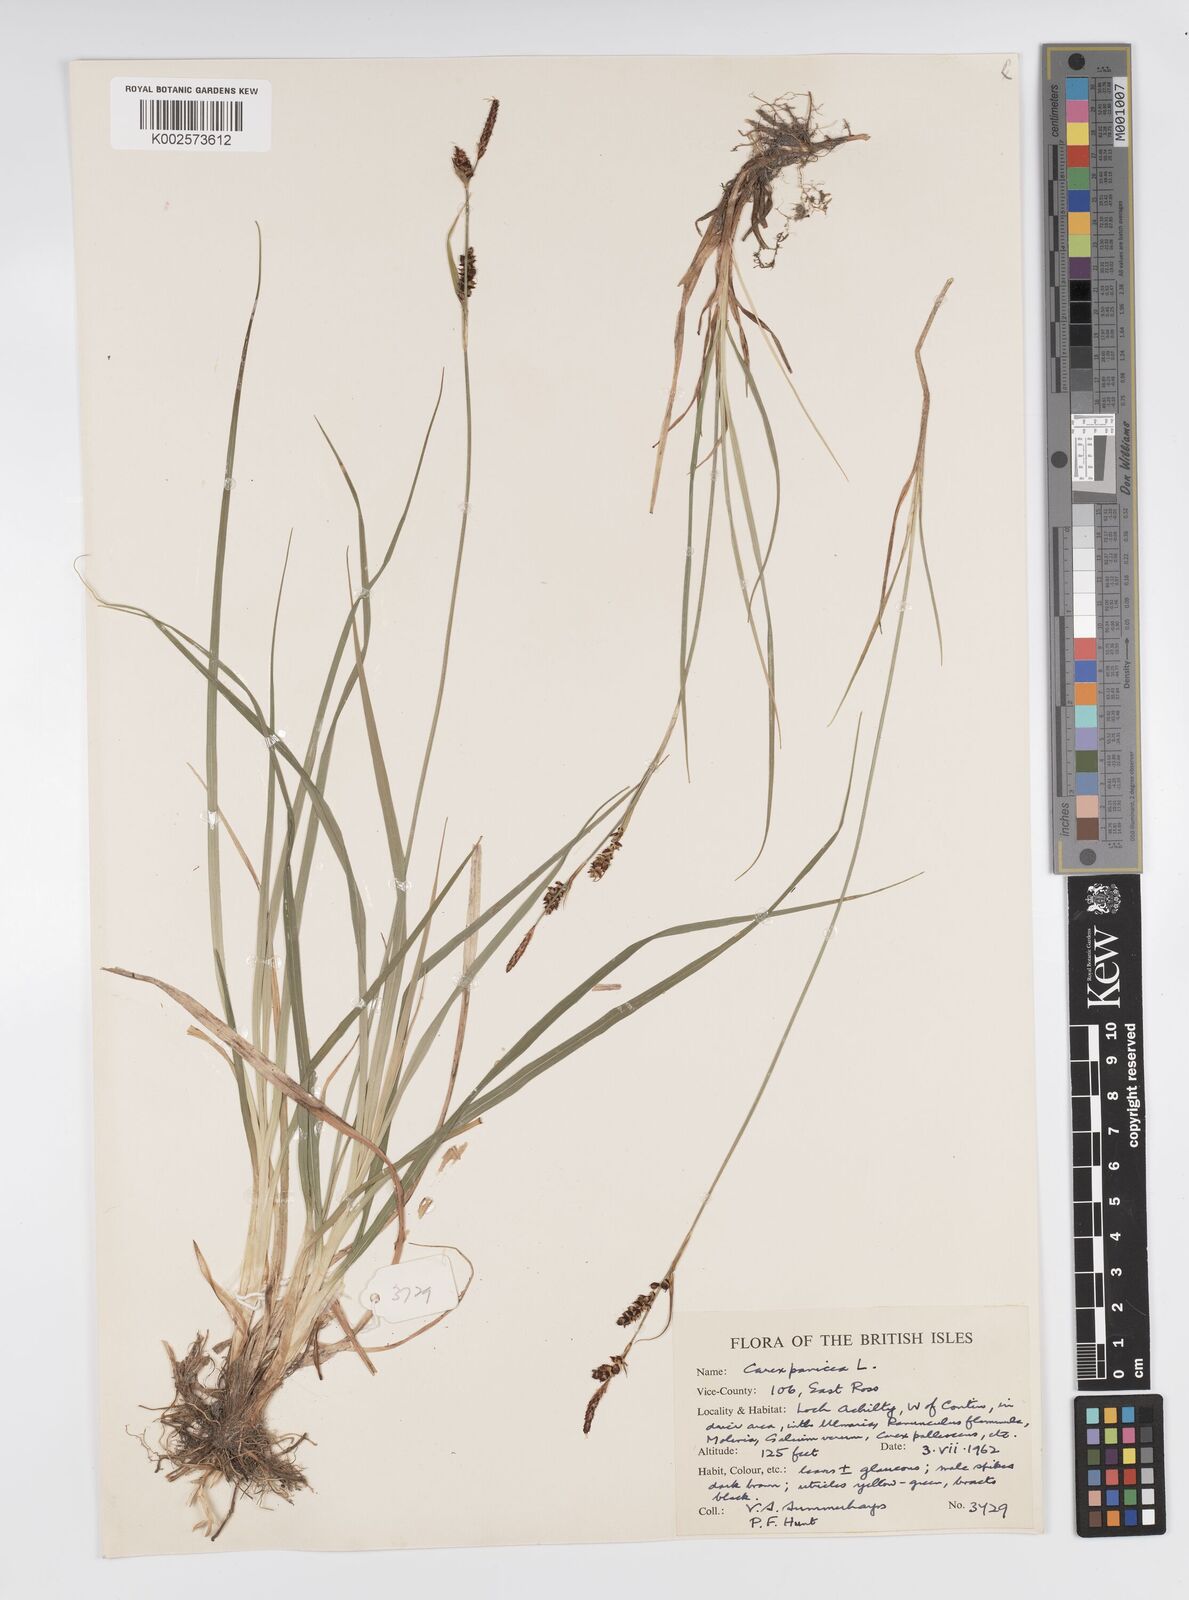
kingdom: Plantae
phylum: Tracheophyta
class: Liliopsida
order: Poales
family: Cyperaceae
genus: Carex
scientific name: Carex panicea
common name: Carnation sedge
